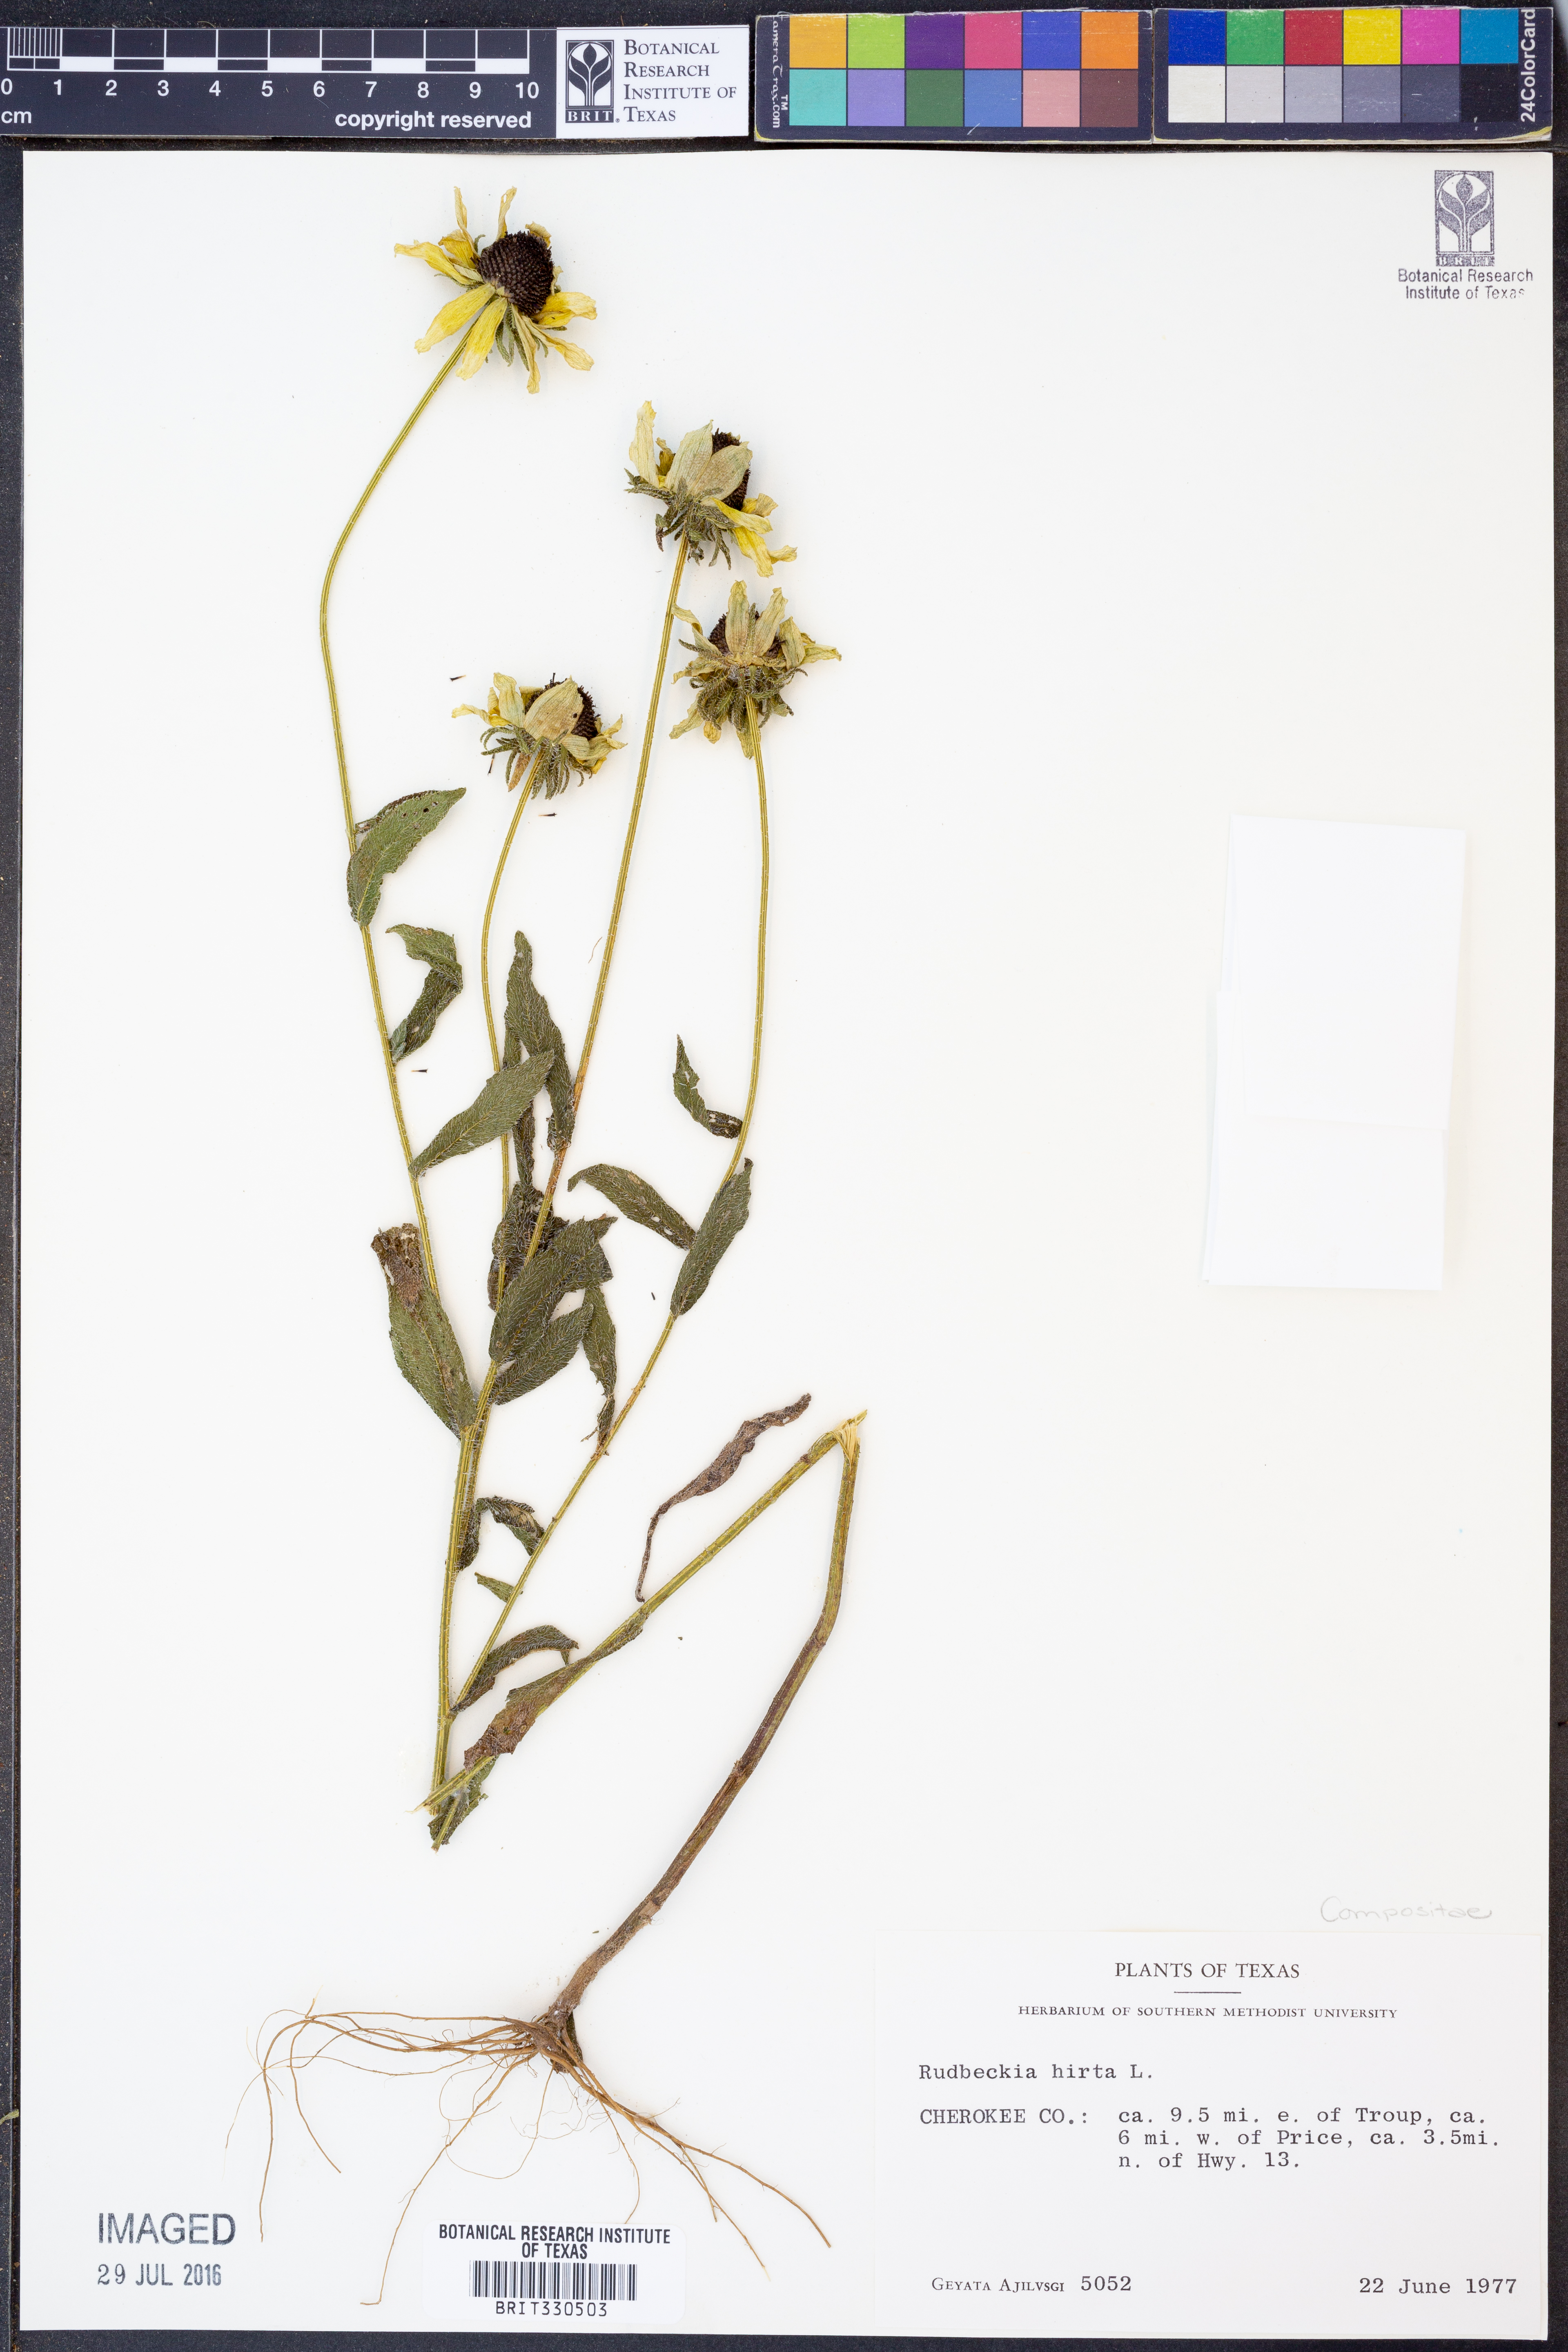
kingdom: Plantae
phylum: Tracheophyta
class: Magnoliopsida
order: Asterales
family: Asteraceae
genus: Rudbeckia
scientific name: Rudbeckia hirta
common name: Black-eyed-susan
